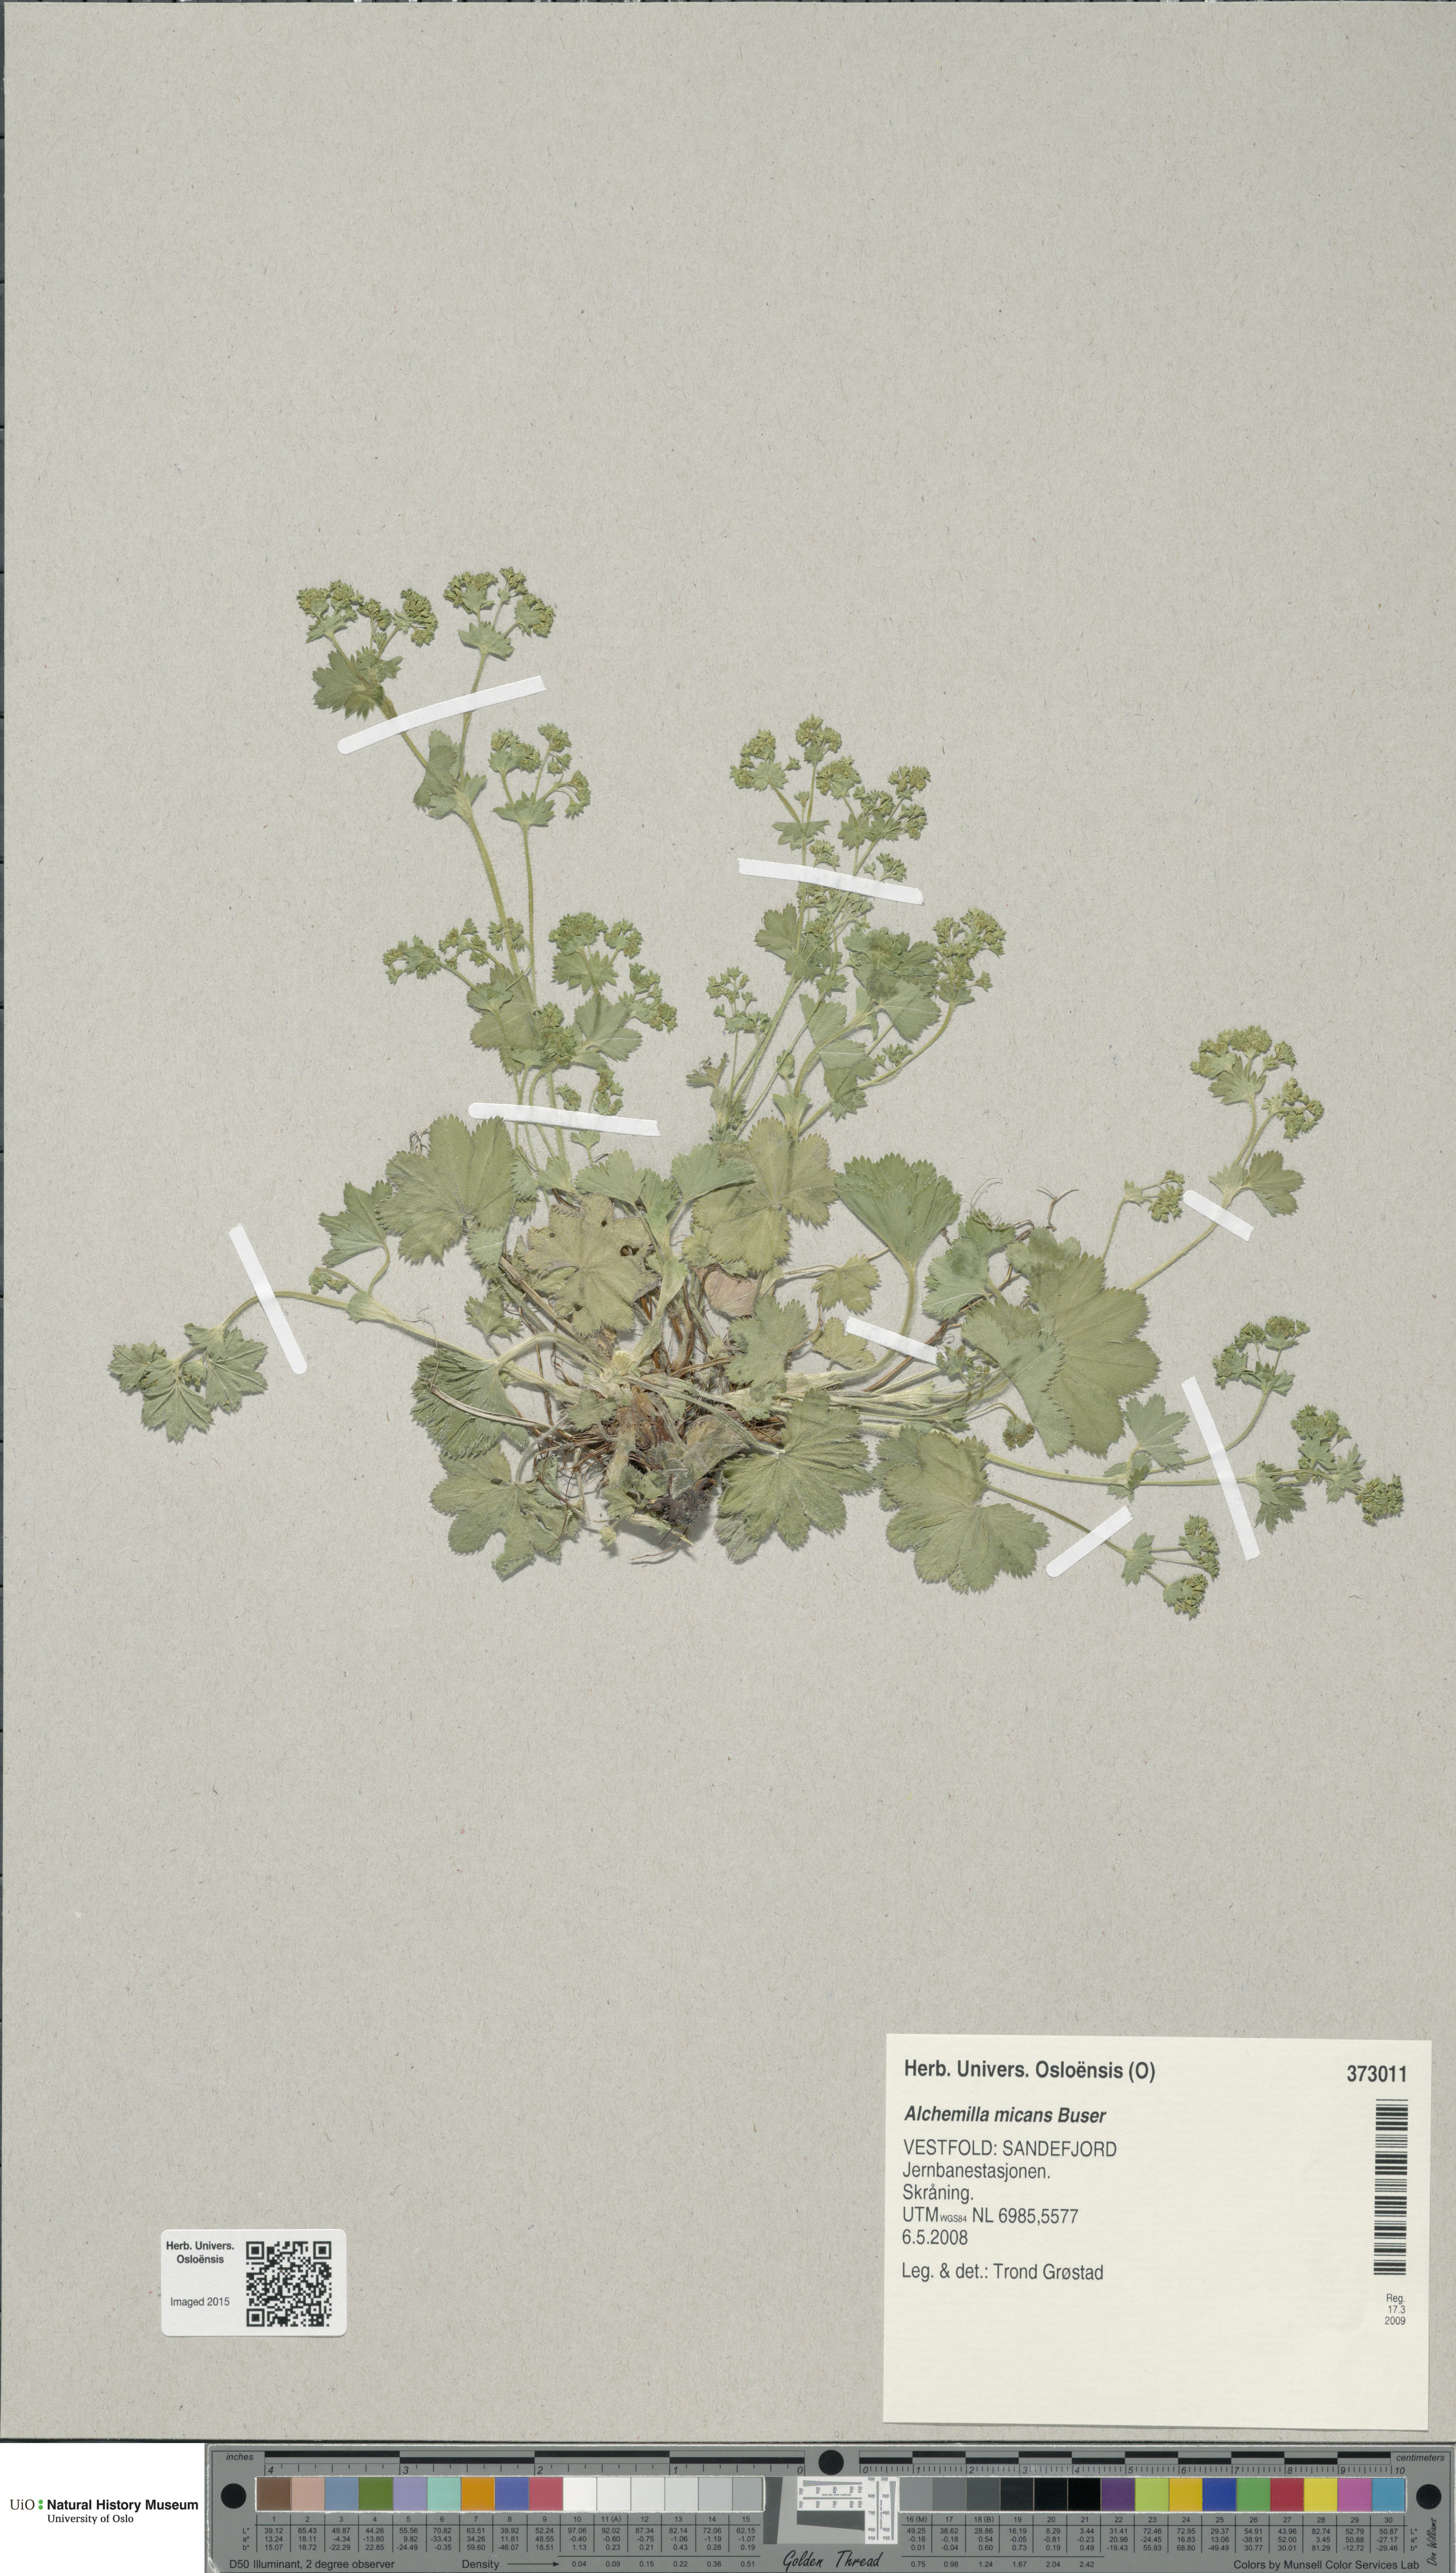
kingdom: Plantae
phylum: Tracheophyta
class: Magnoliopsida
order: Rosales
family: Rosaceae
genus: Alchemilla
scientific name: Alchemilla micans
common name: Gleaming lady's mantle
